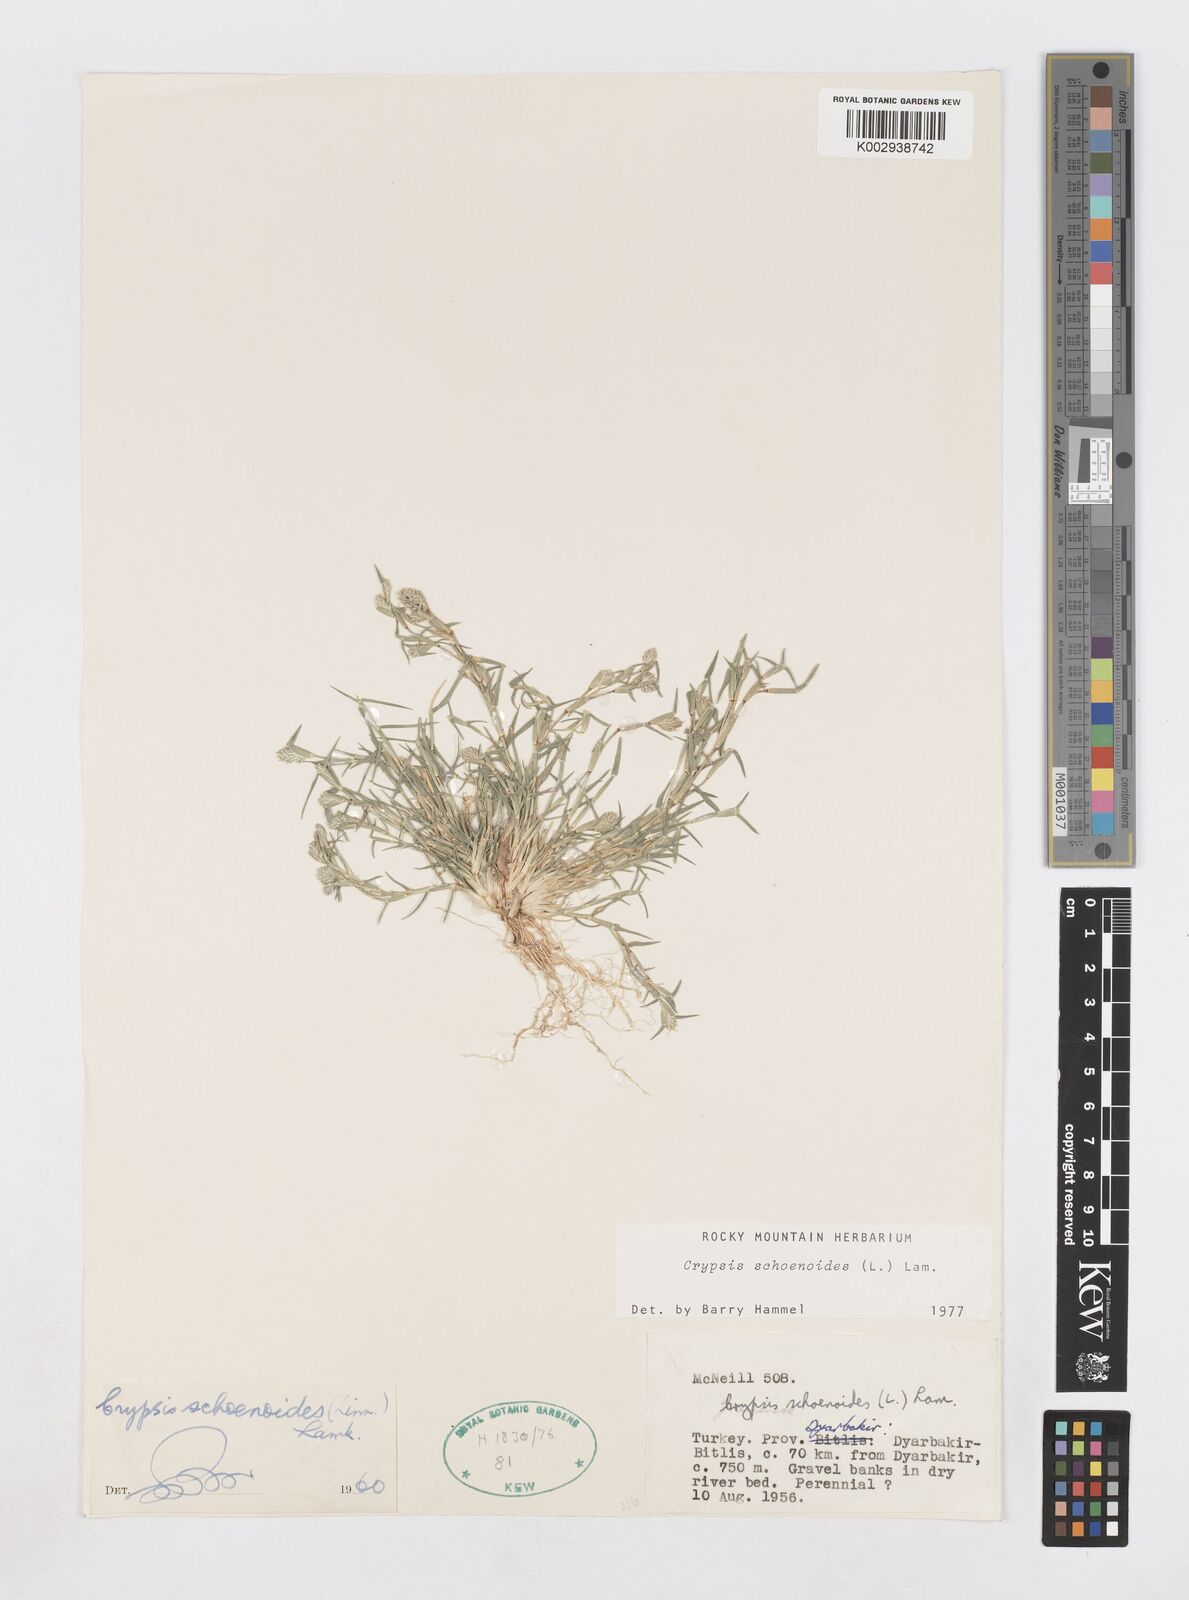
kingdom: Plantae
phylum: Tracheophyta
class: Liliopsida
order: Poales
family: Poaceae
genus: Sporobolus
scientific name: Sporobolus schoenoides
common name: Rush-like timothy
